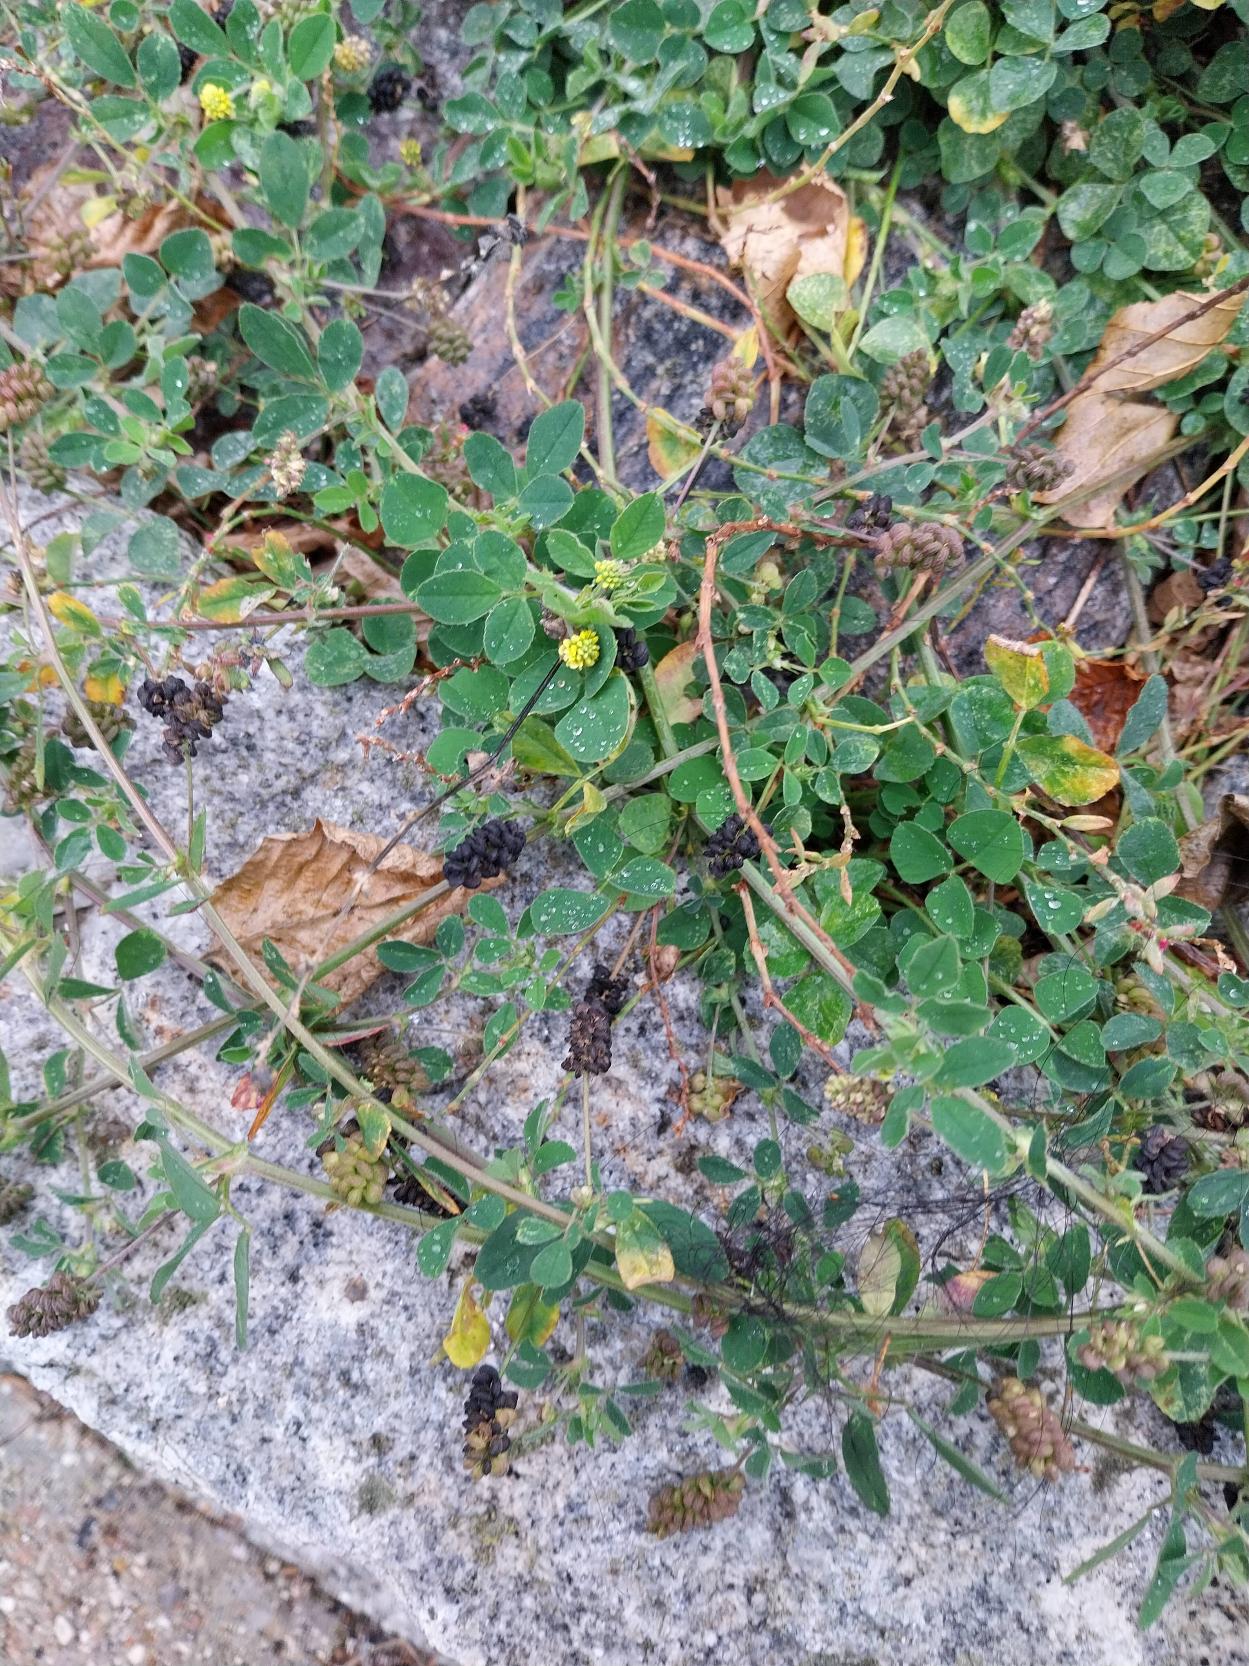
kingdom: Plantae
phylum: Tracheophyta
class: Magnoliopsida
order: Fabales
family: Fabaceae
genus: Medicago
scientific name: Medicago lupulina
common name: Humle-sneglebælg
